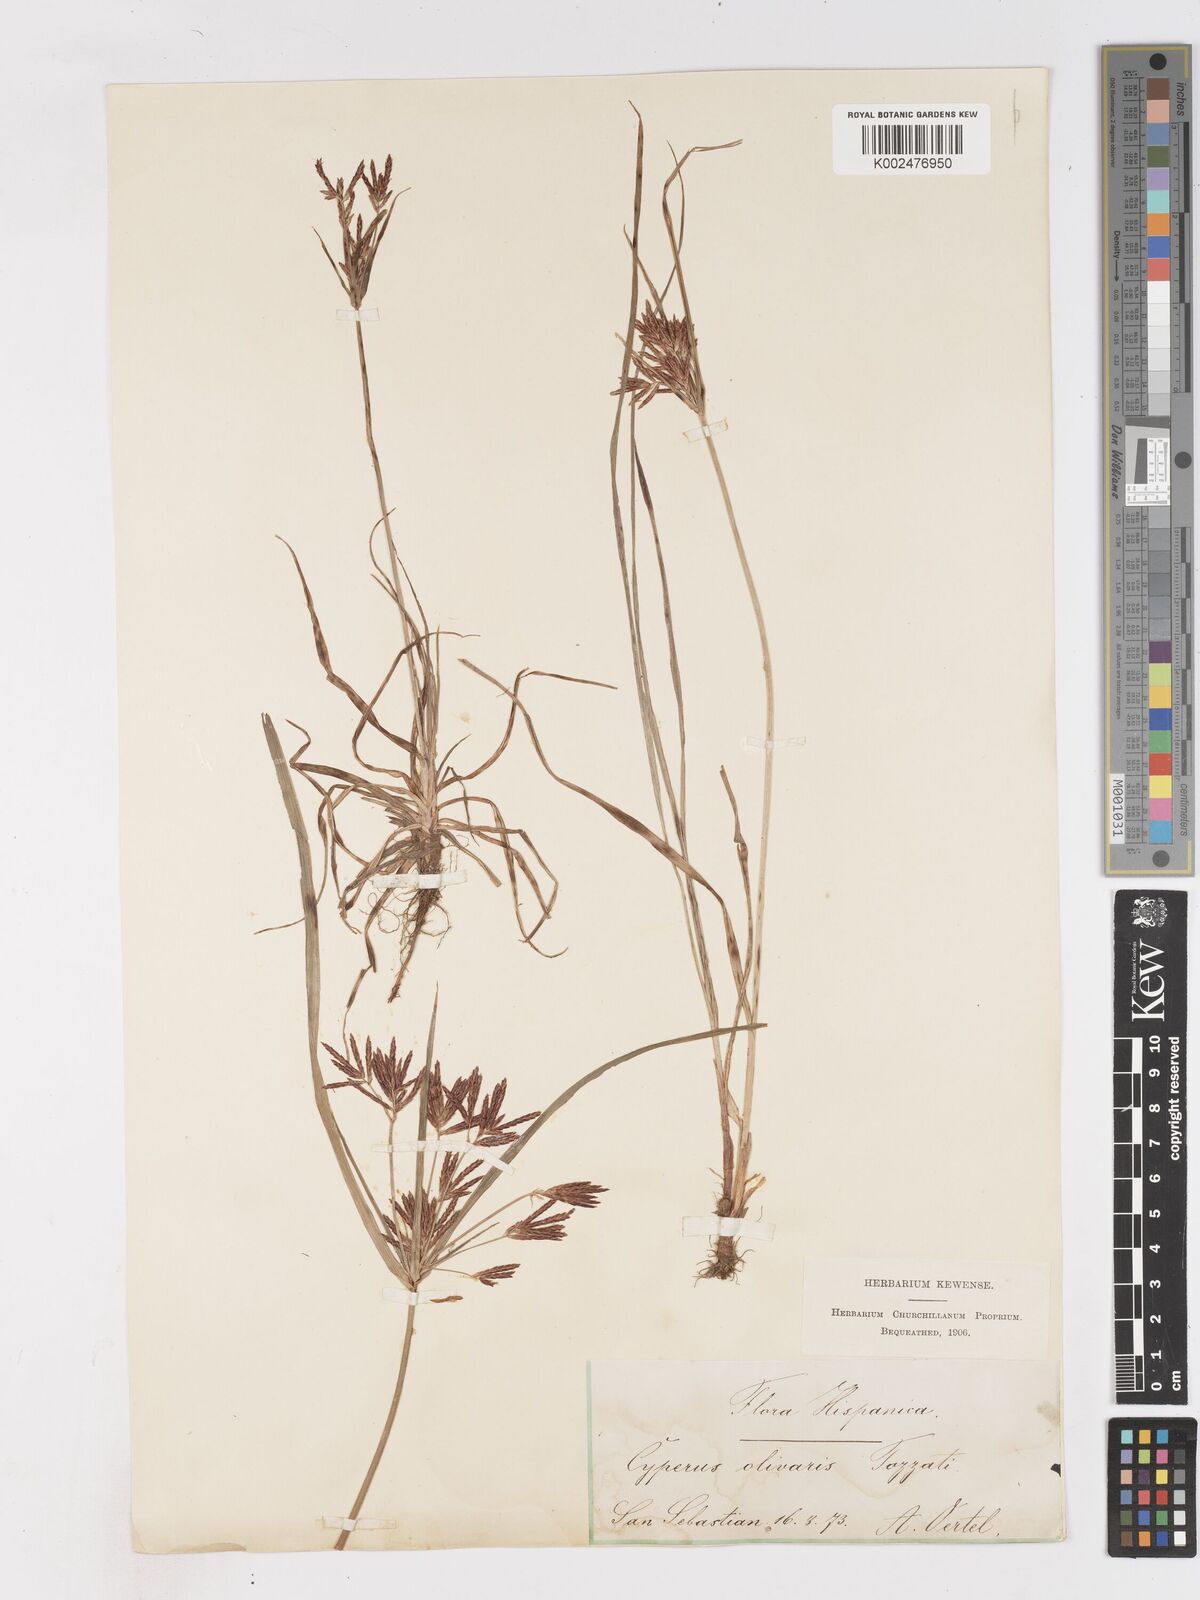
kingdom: Plantae
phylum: Tracheophyta
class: Liliopsida
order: Poales
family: Cyperaceae
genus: Cyperus
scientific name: Cyperus rotundus
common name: Nutgrass
